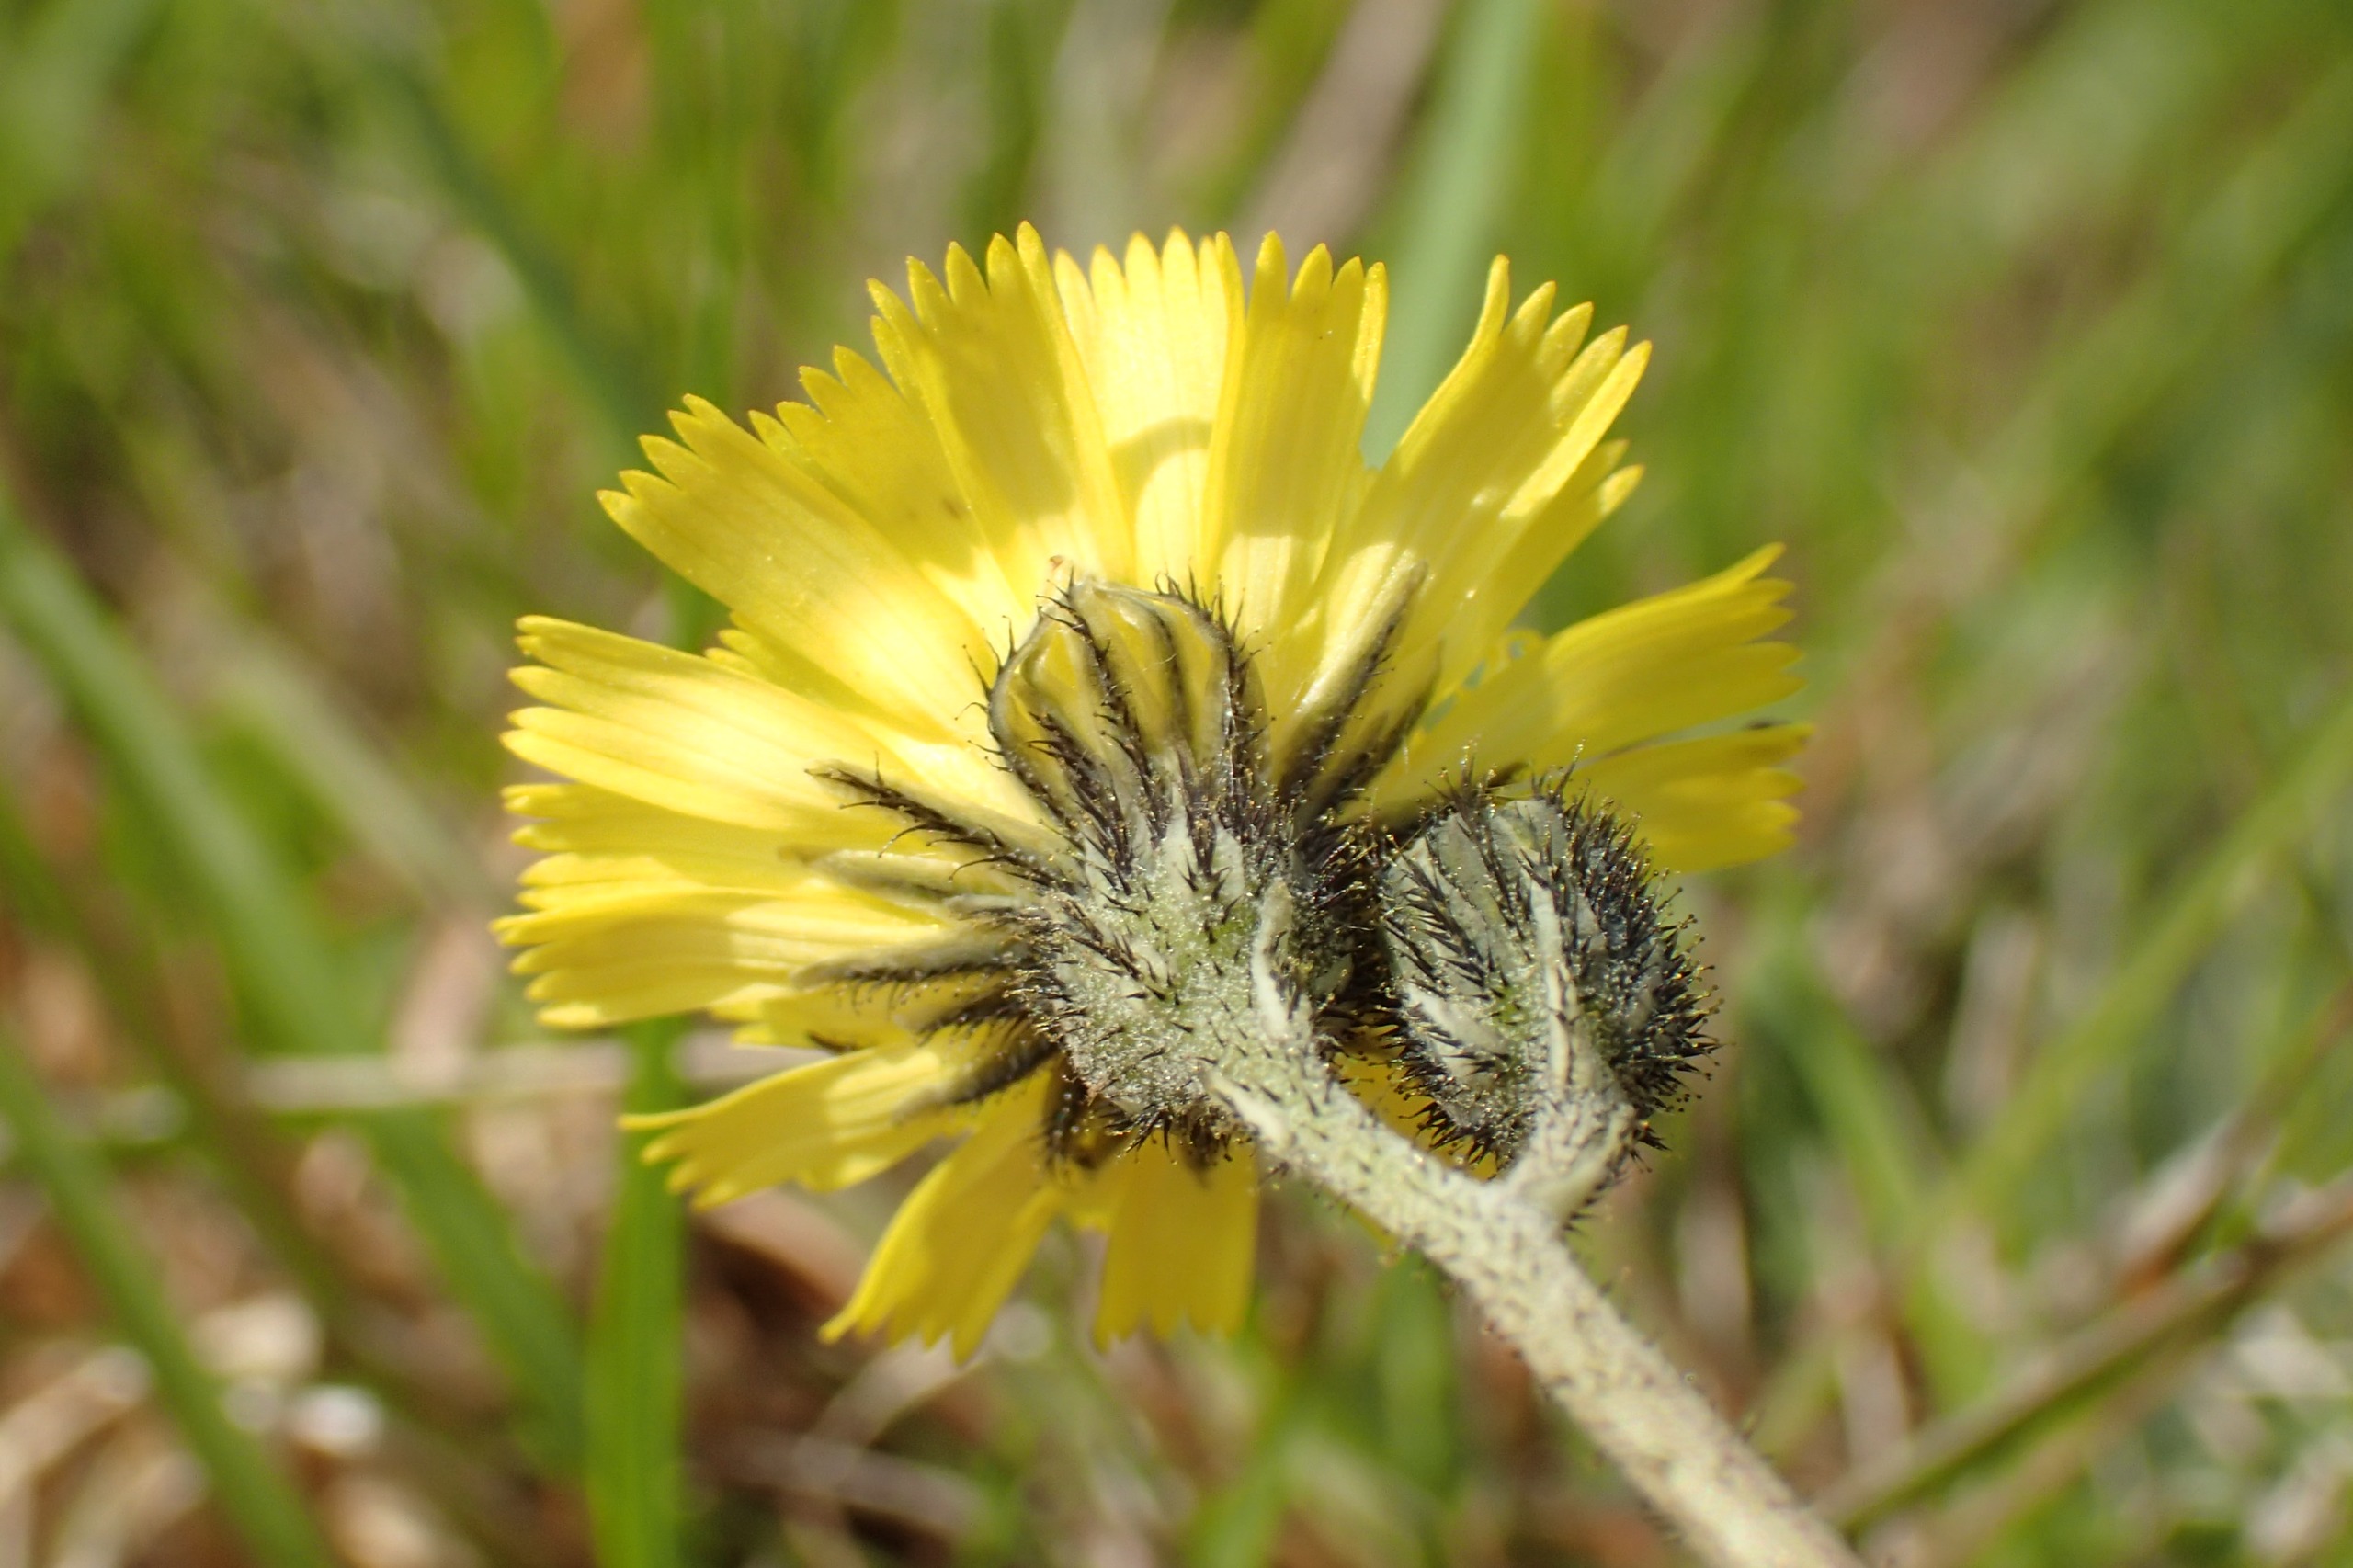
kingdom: Plantae
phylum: Tracheophyta
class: Magnoliopsida
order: Asterales
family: Asteraceae
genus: Pilosella
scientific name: Pilosella lactucella
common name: Lancetbladet høgeurt
